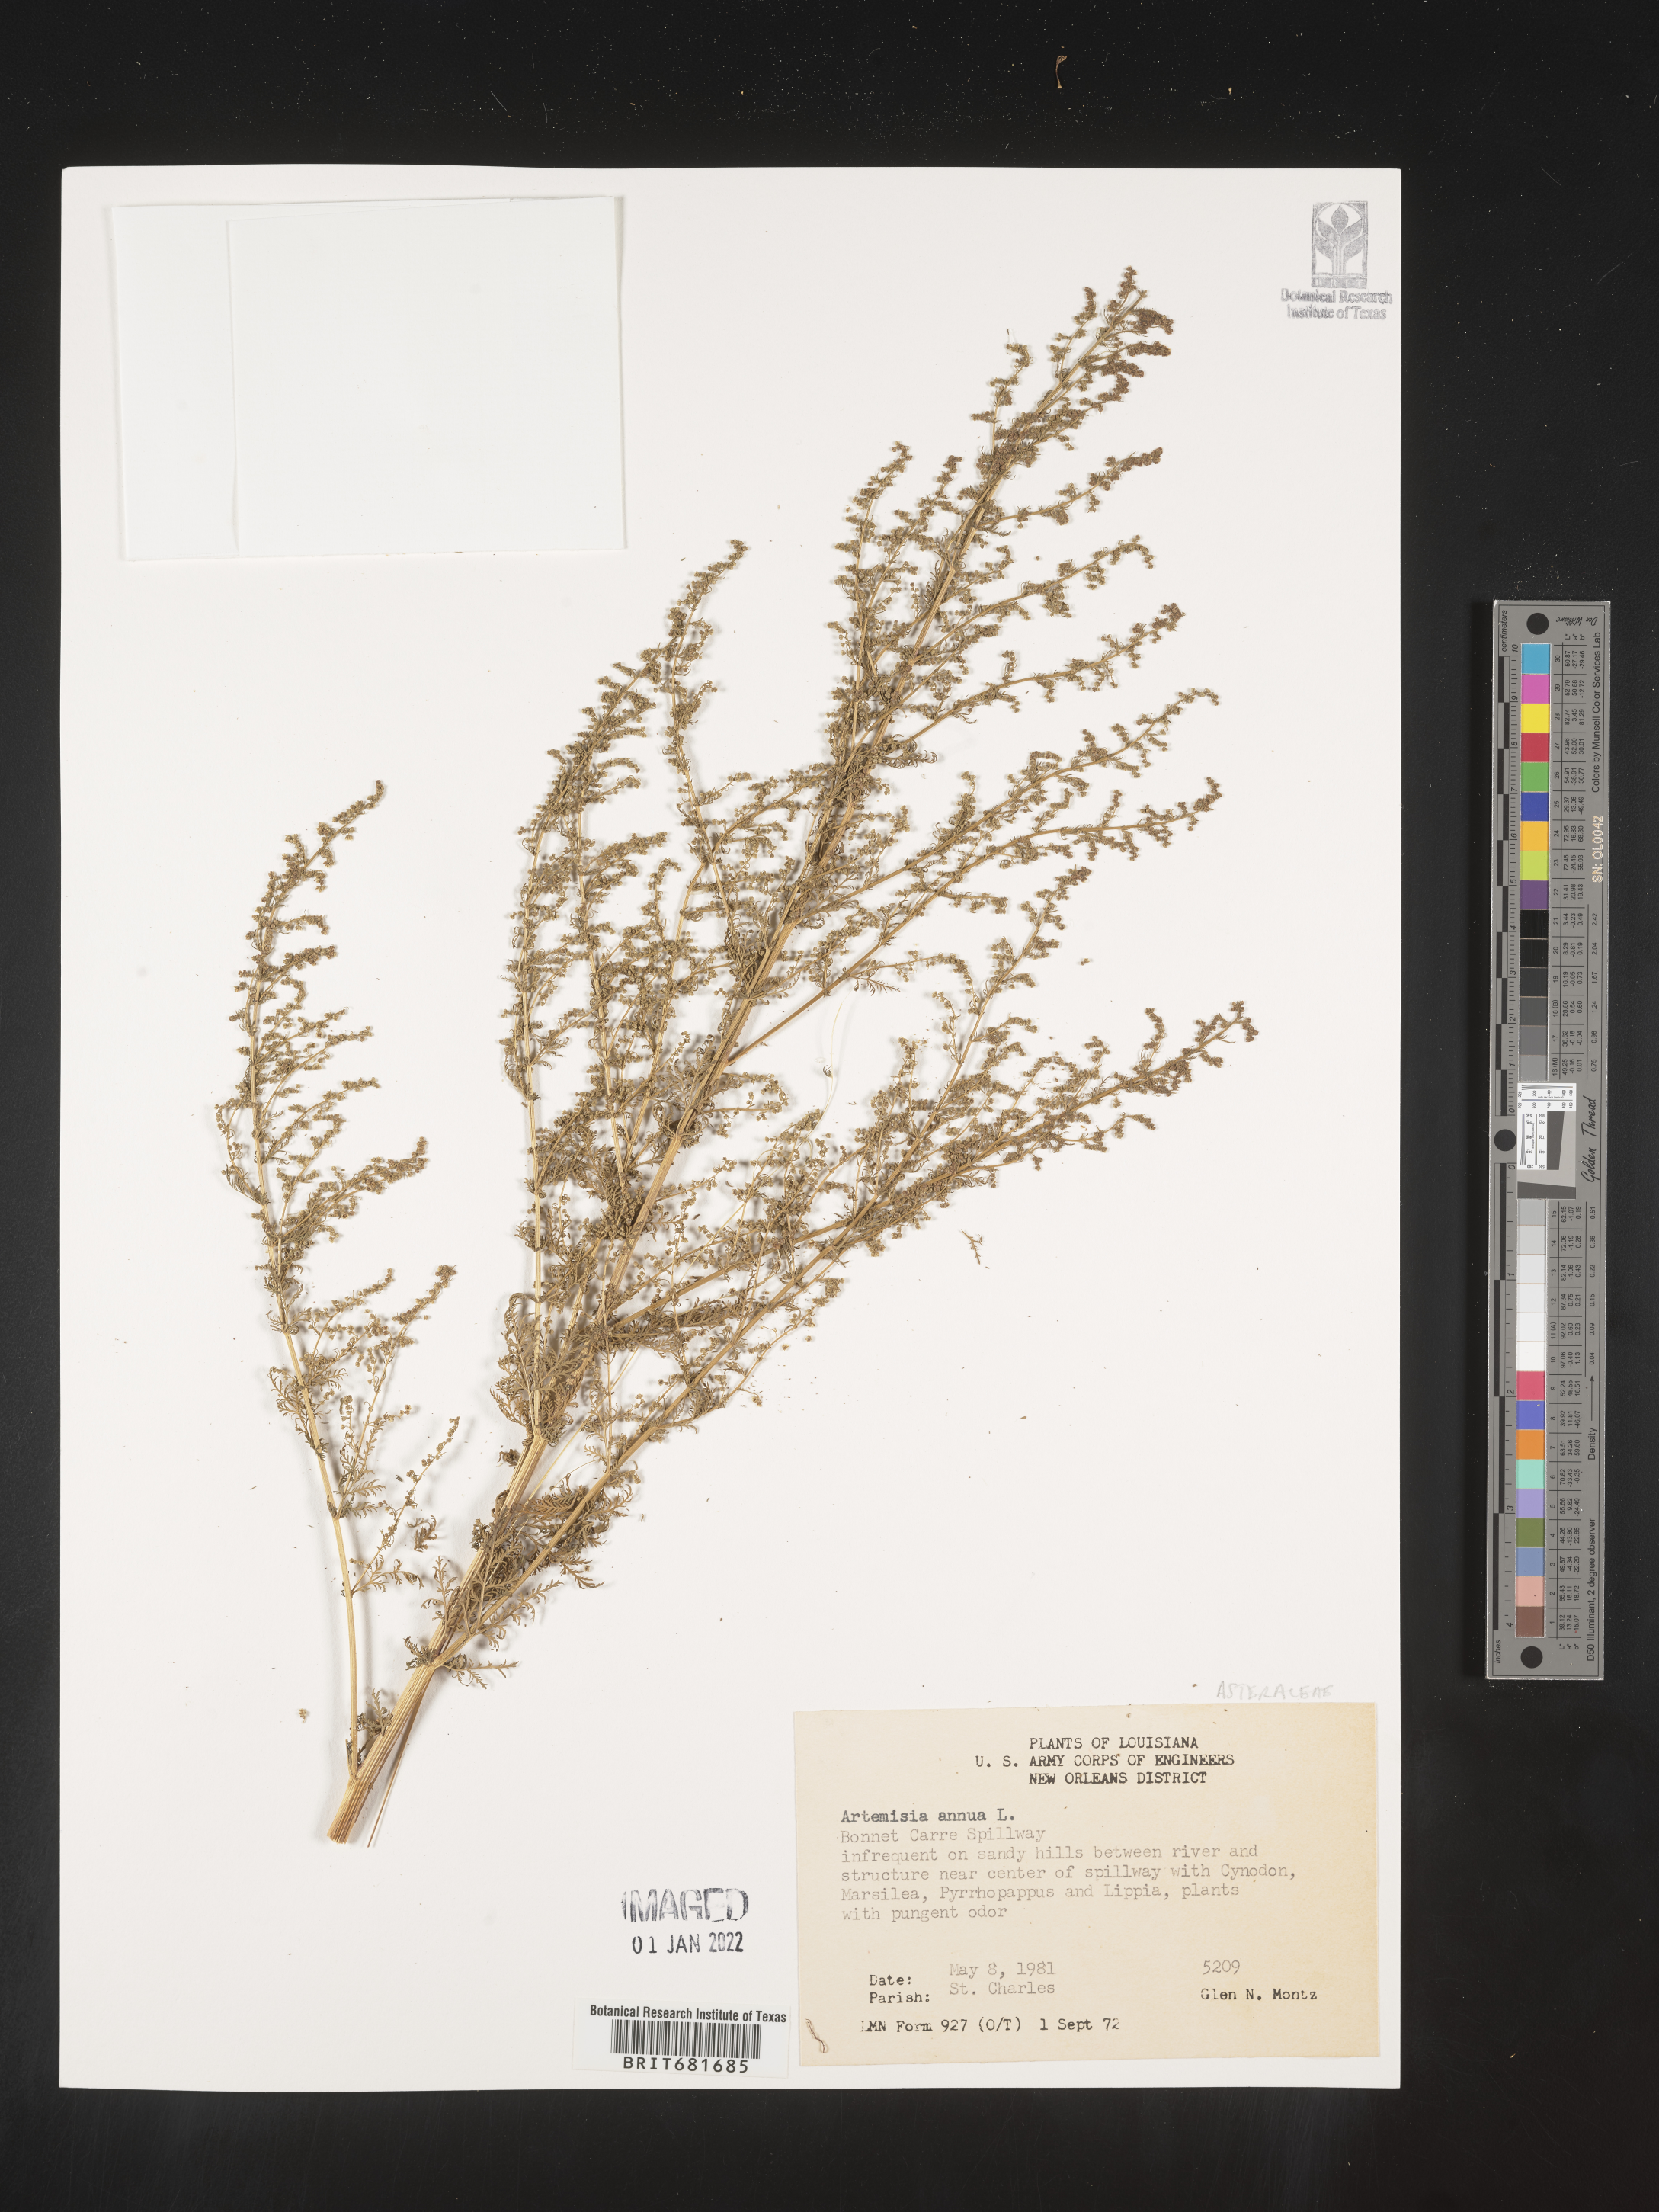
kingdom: Plantae
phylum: Tracheophyta
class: Magnoliopsida
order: Asterales
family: Asteraceae
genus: Artemisia
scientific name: Artemisia annua
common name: Sweet sagewort
